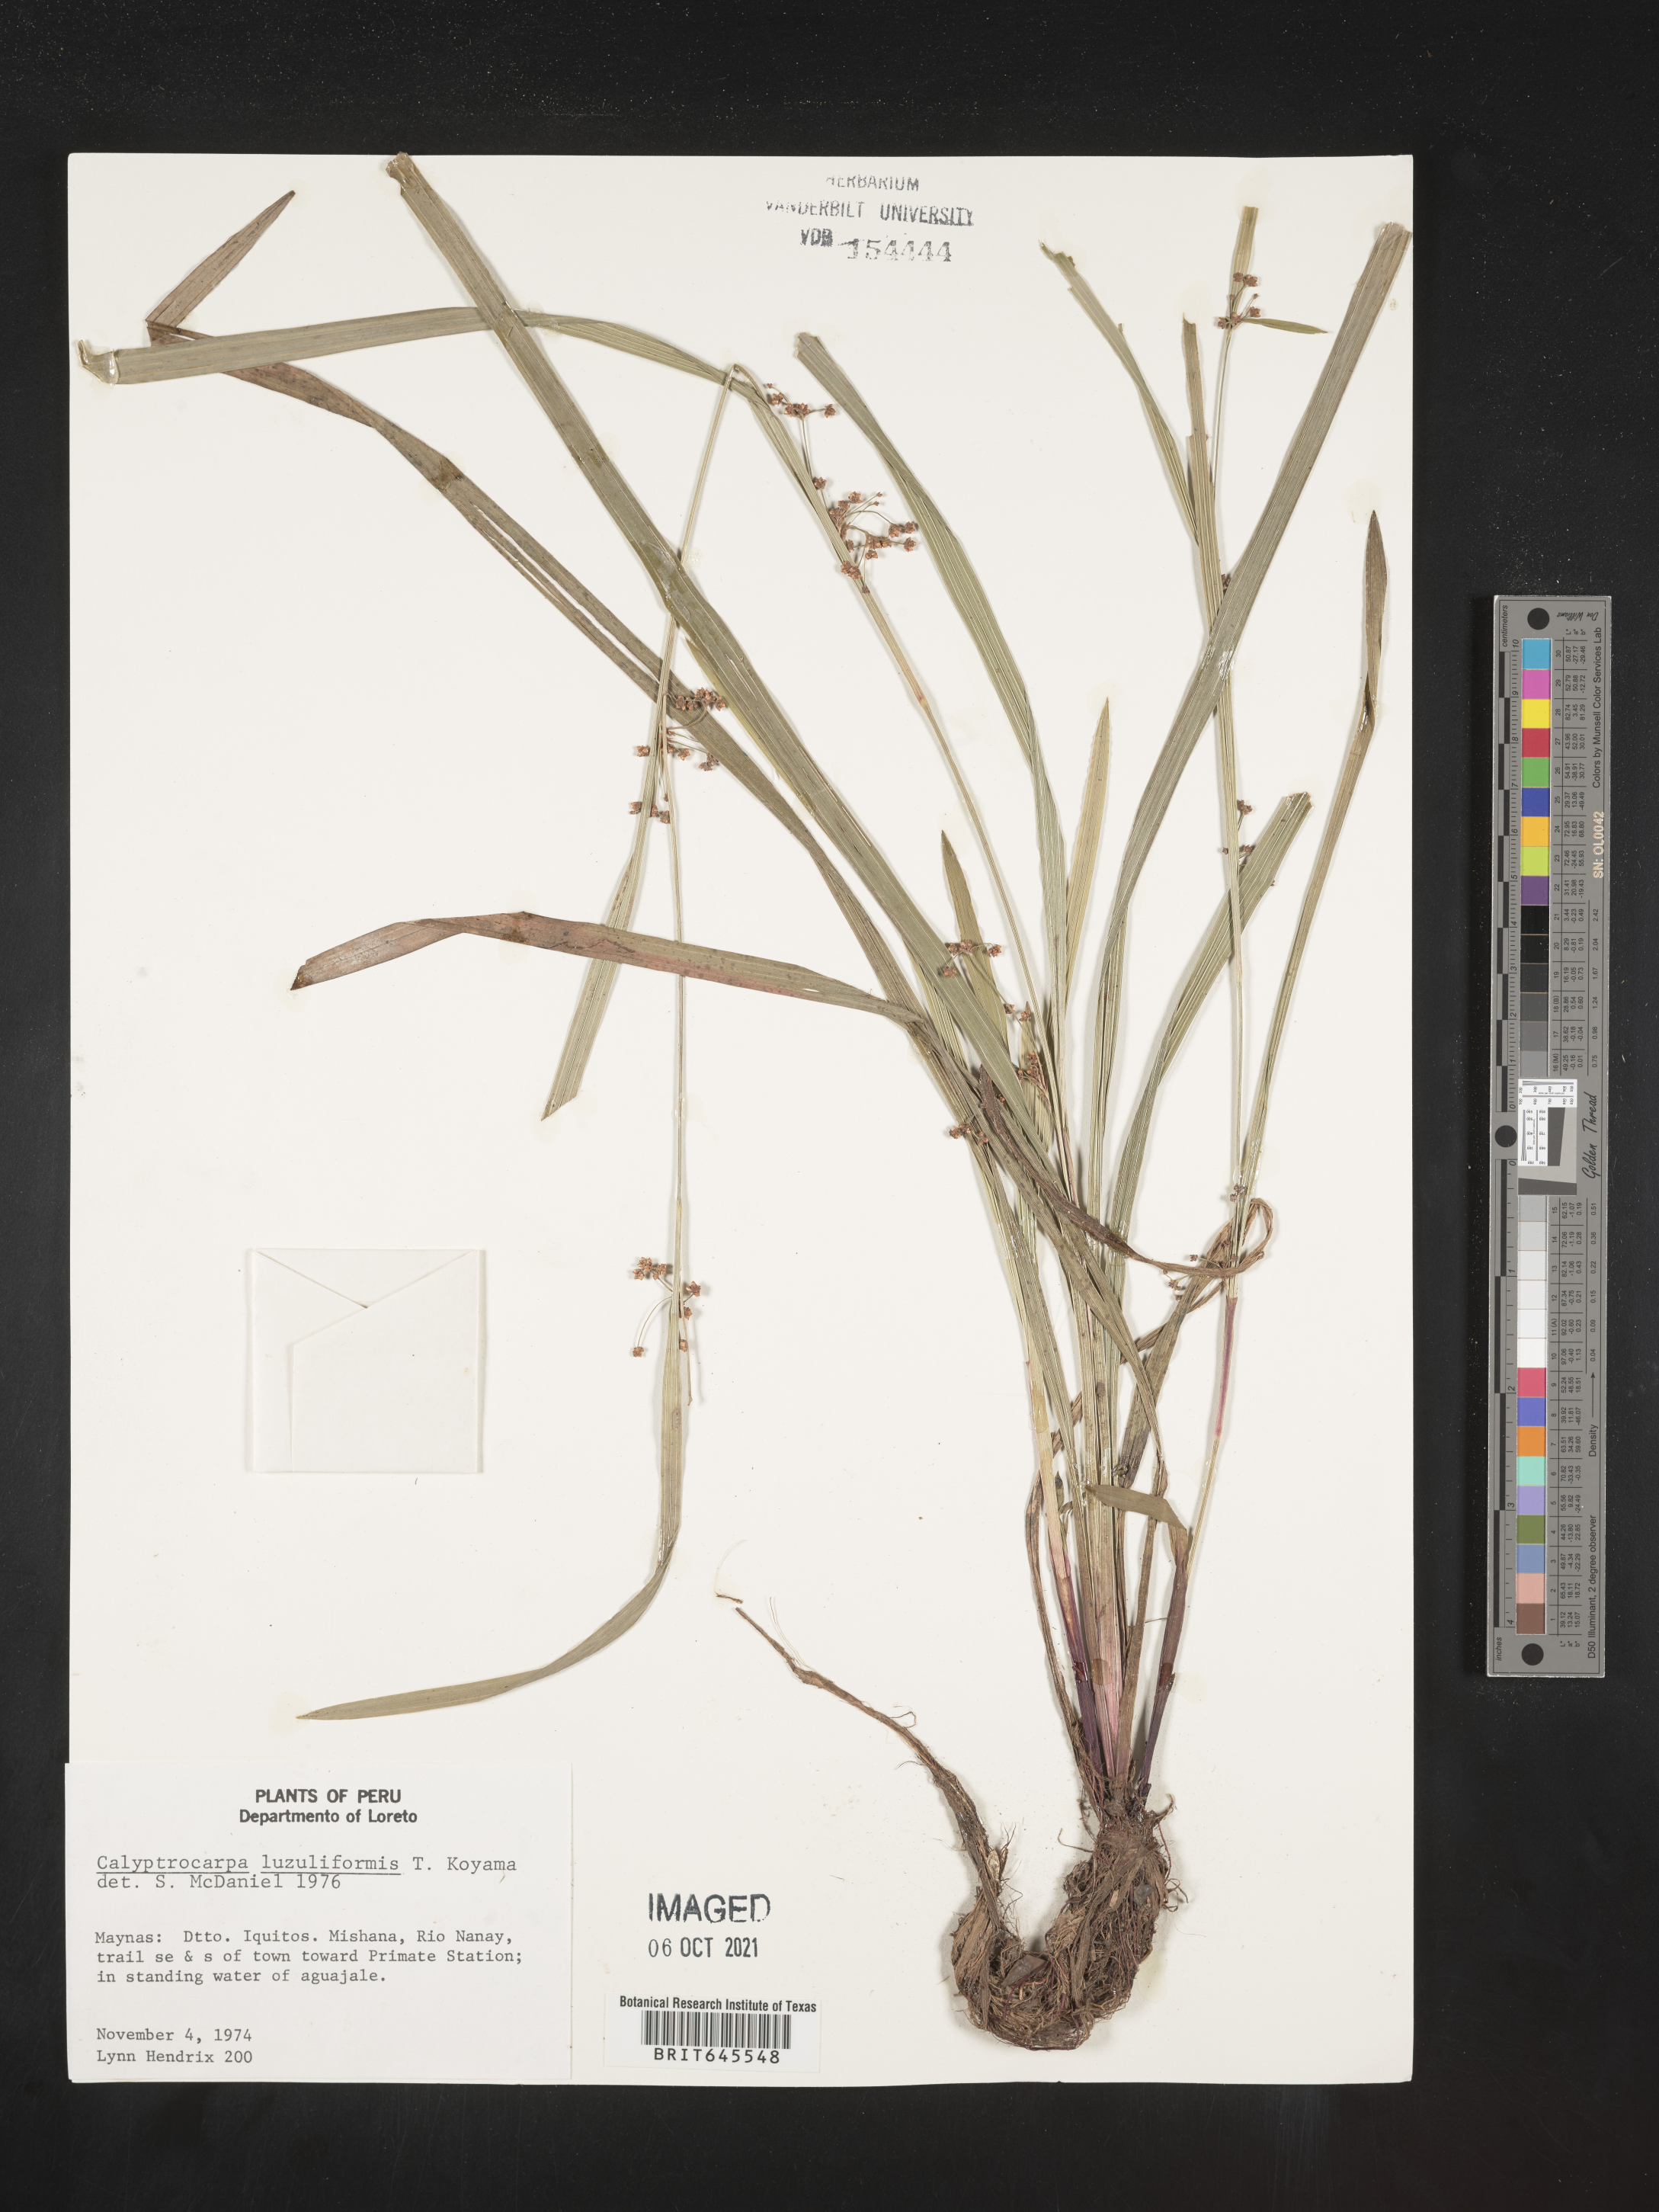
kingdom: Plantae
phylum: Tracheophyta
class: Liliopsida
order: Poales
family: Cyperaceae
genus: Calyptrocarya
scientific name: Calyptrocarya luzuliformis
